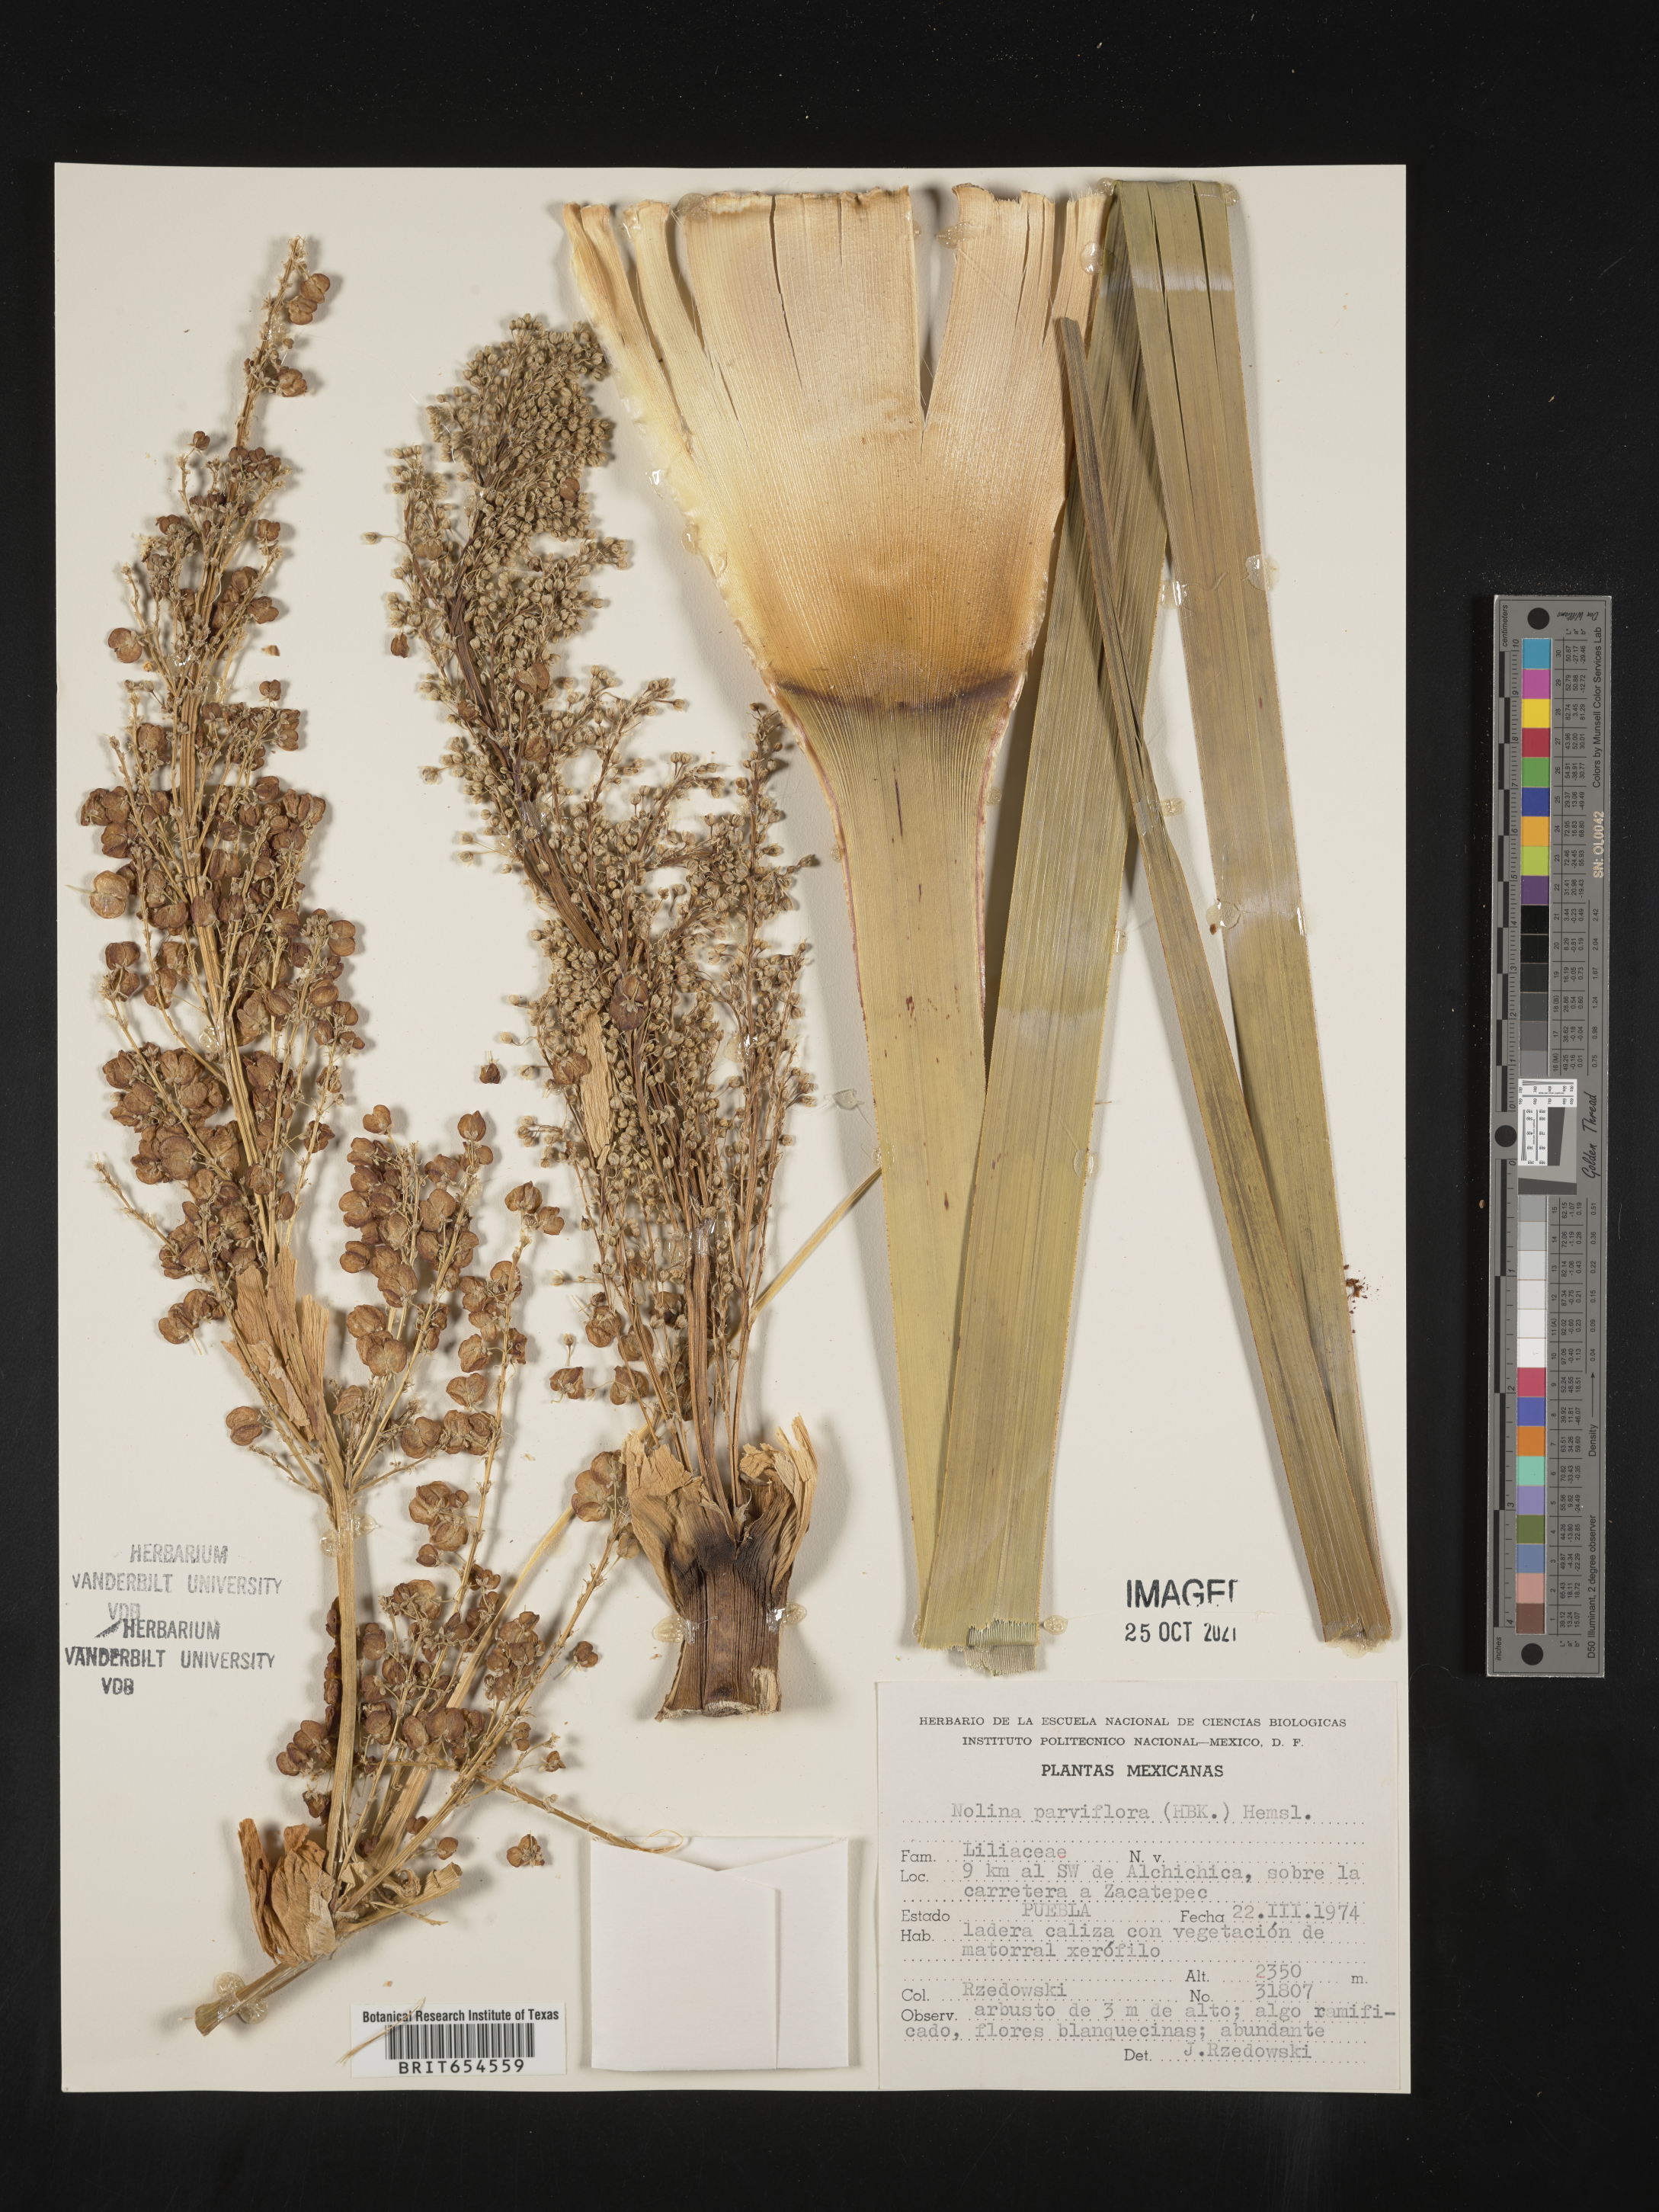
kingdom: Plantae
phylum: Tracheophyta
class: Liliopsida
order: Asparagales
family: Asparagaceae
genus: Nolina
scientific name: Nolina
